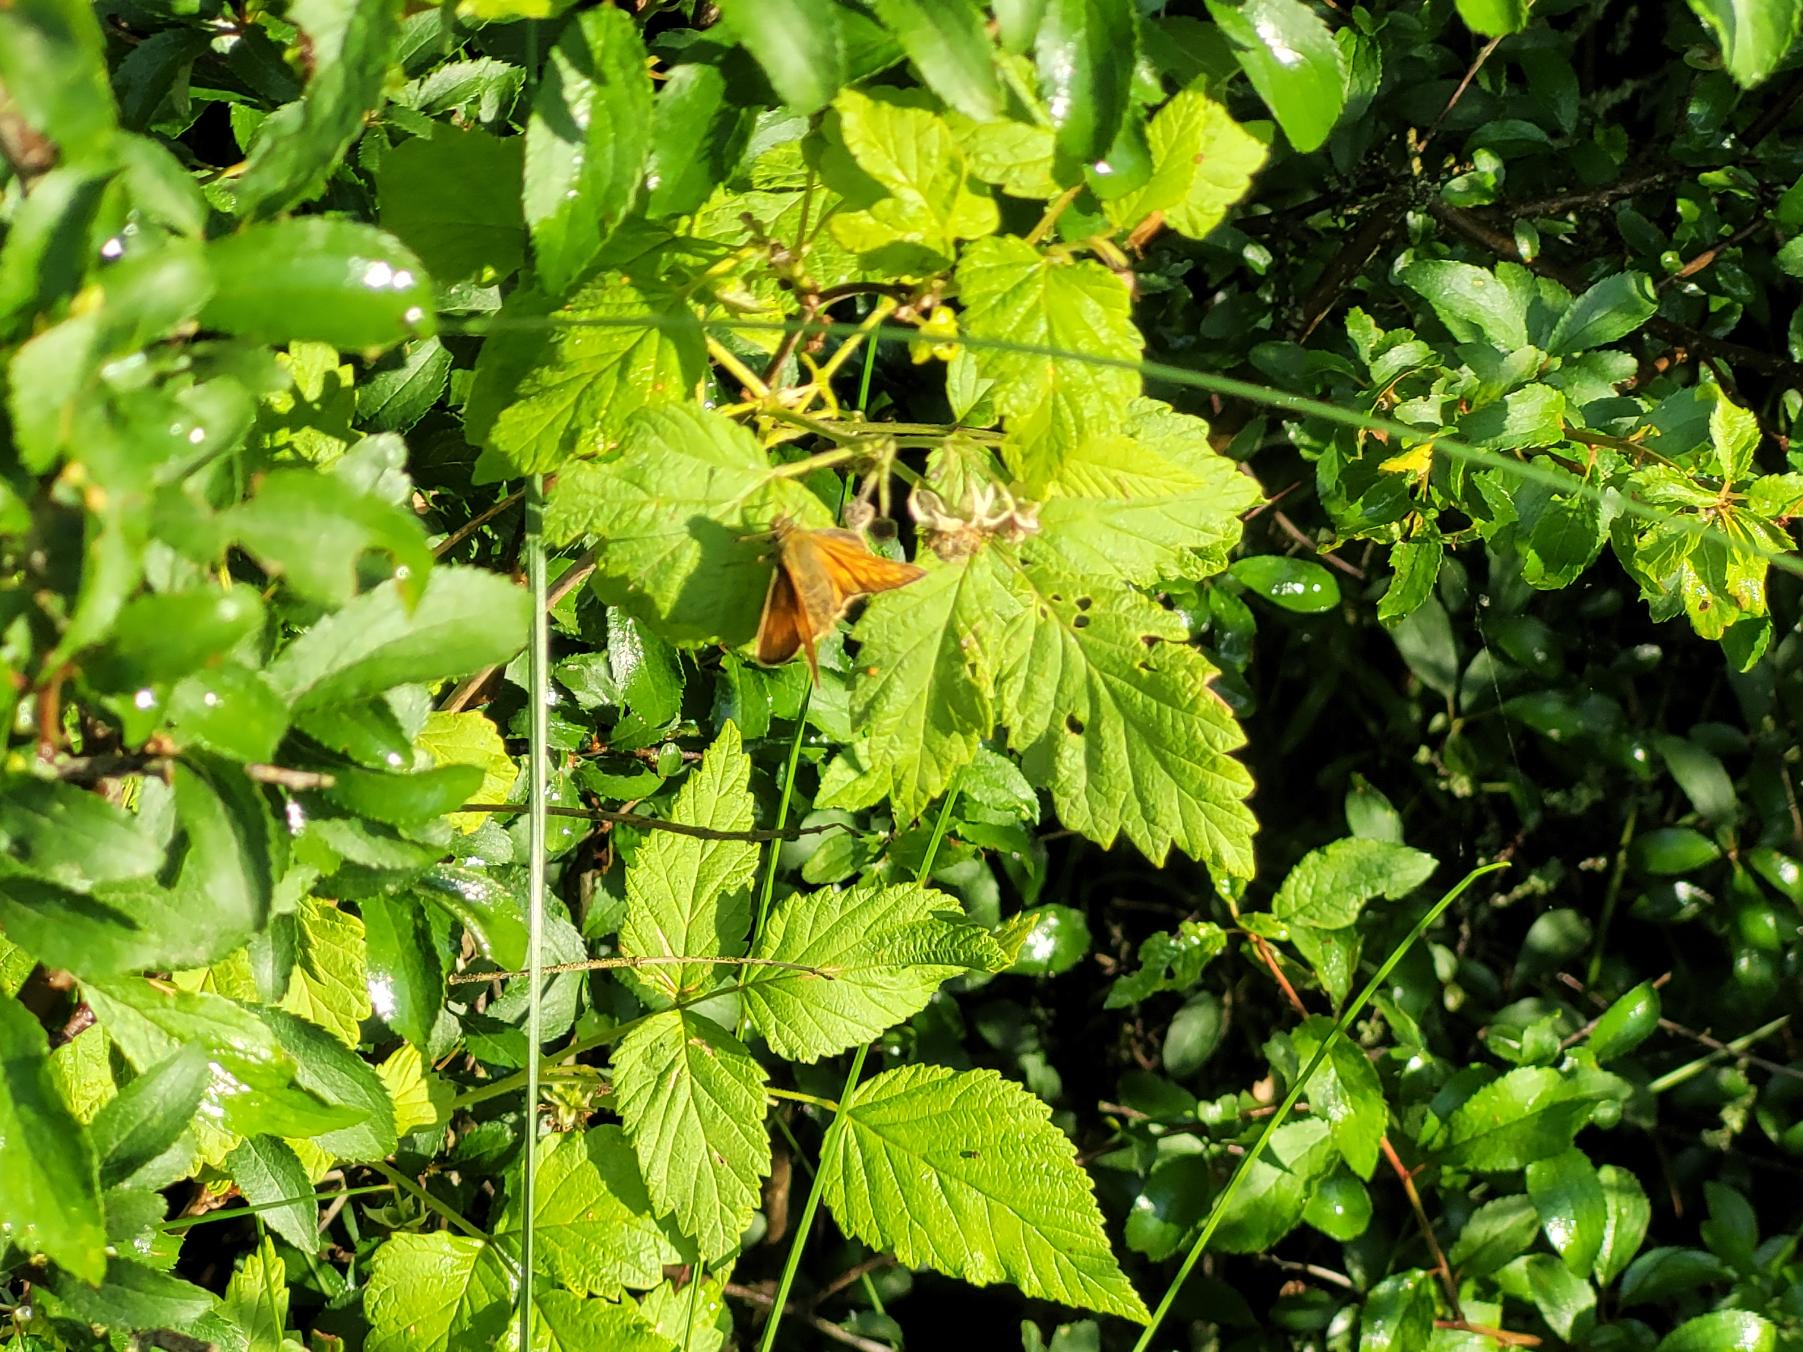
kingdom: Animalia
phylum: Arthropoda
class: Insecta
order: Lepidoptera
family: Hesperiidae
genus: Ochlodes
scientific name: Ochlodes venata
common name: Stor bredpande
